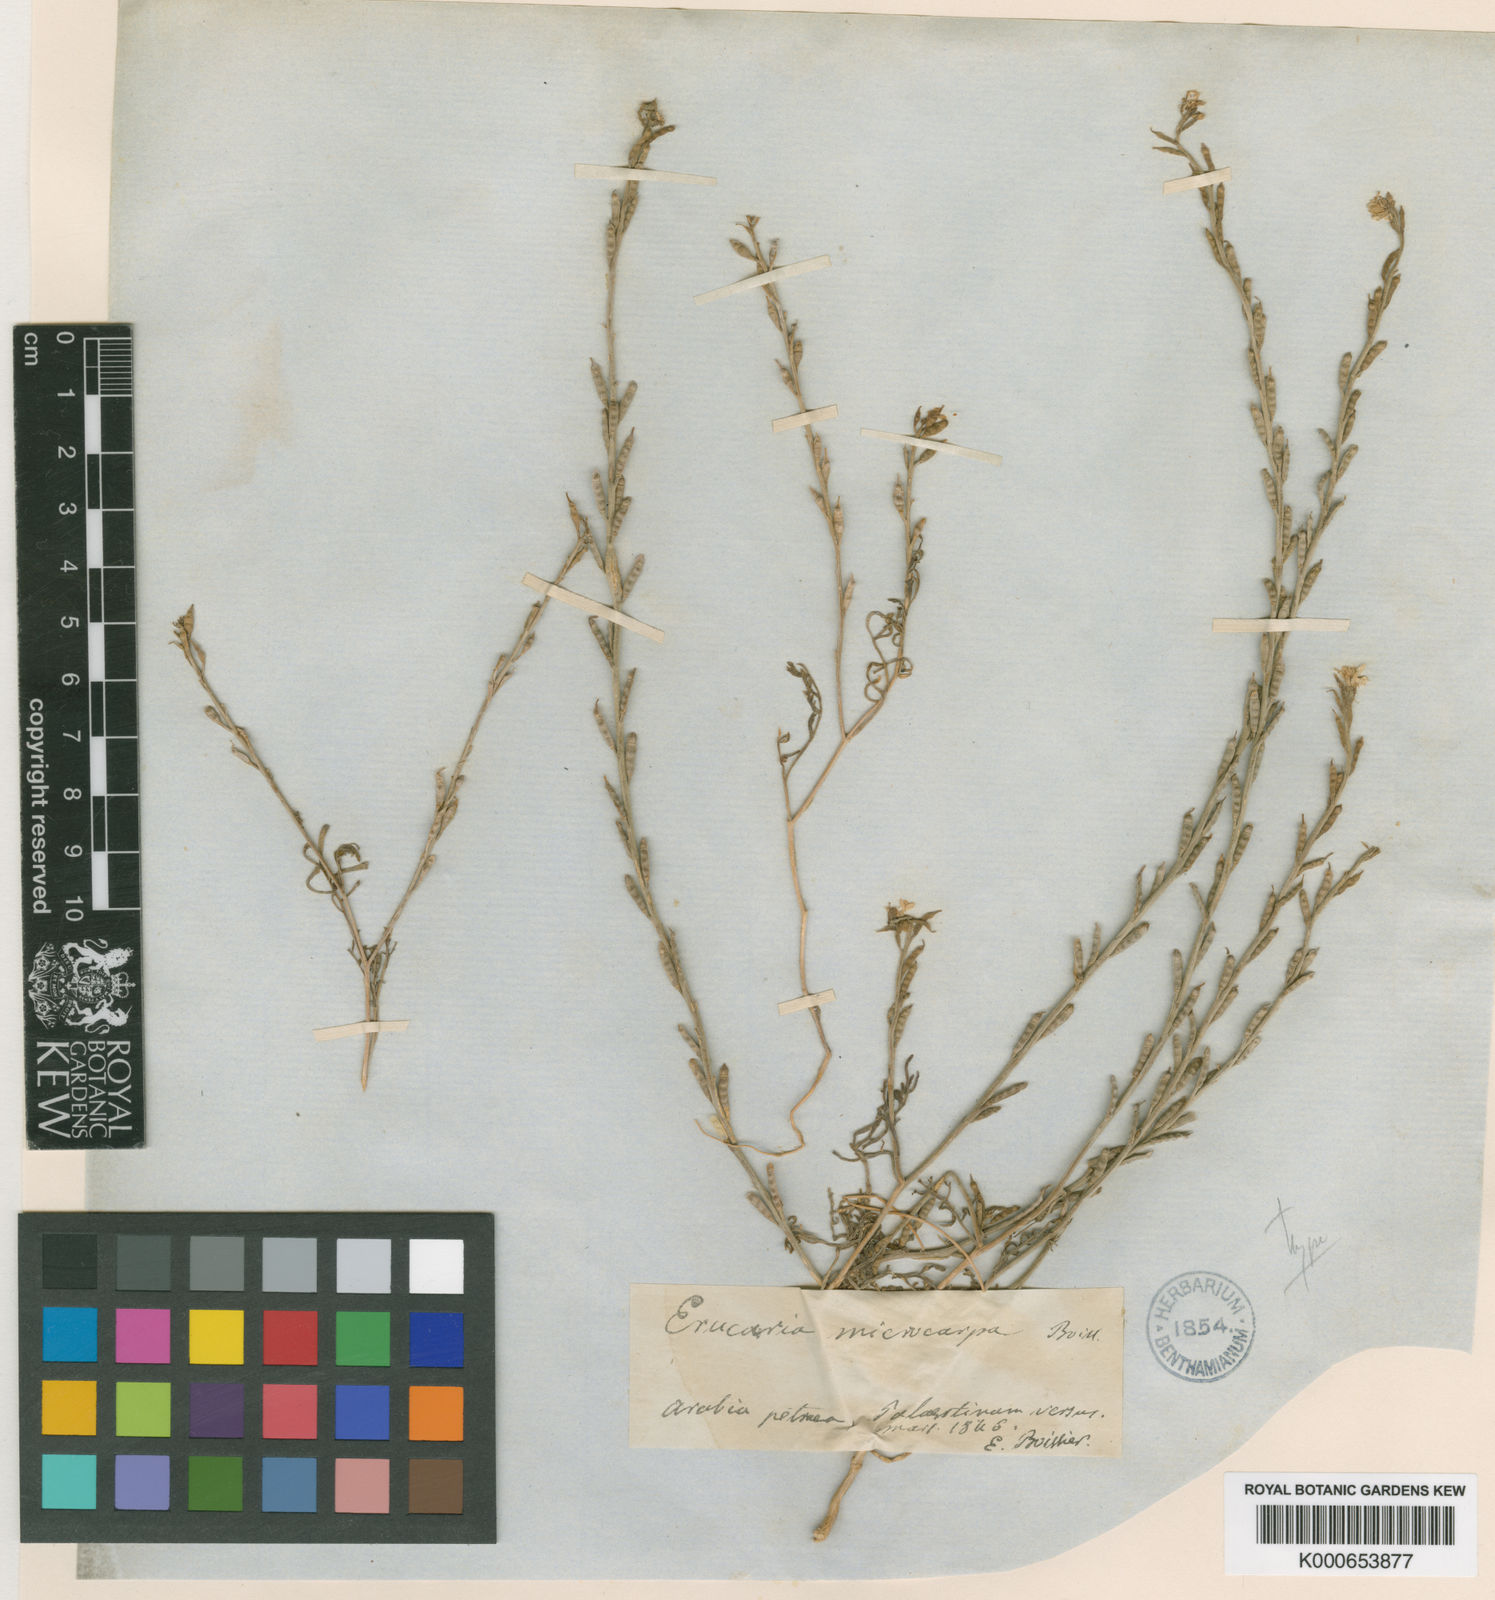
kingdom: Plantae
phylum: Tracheophyta
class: Magnoliopsida
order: Brassicales
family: Brassicaceae
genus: Erucaria
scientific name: Erucaria microcarpa
